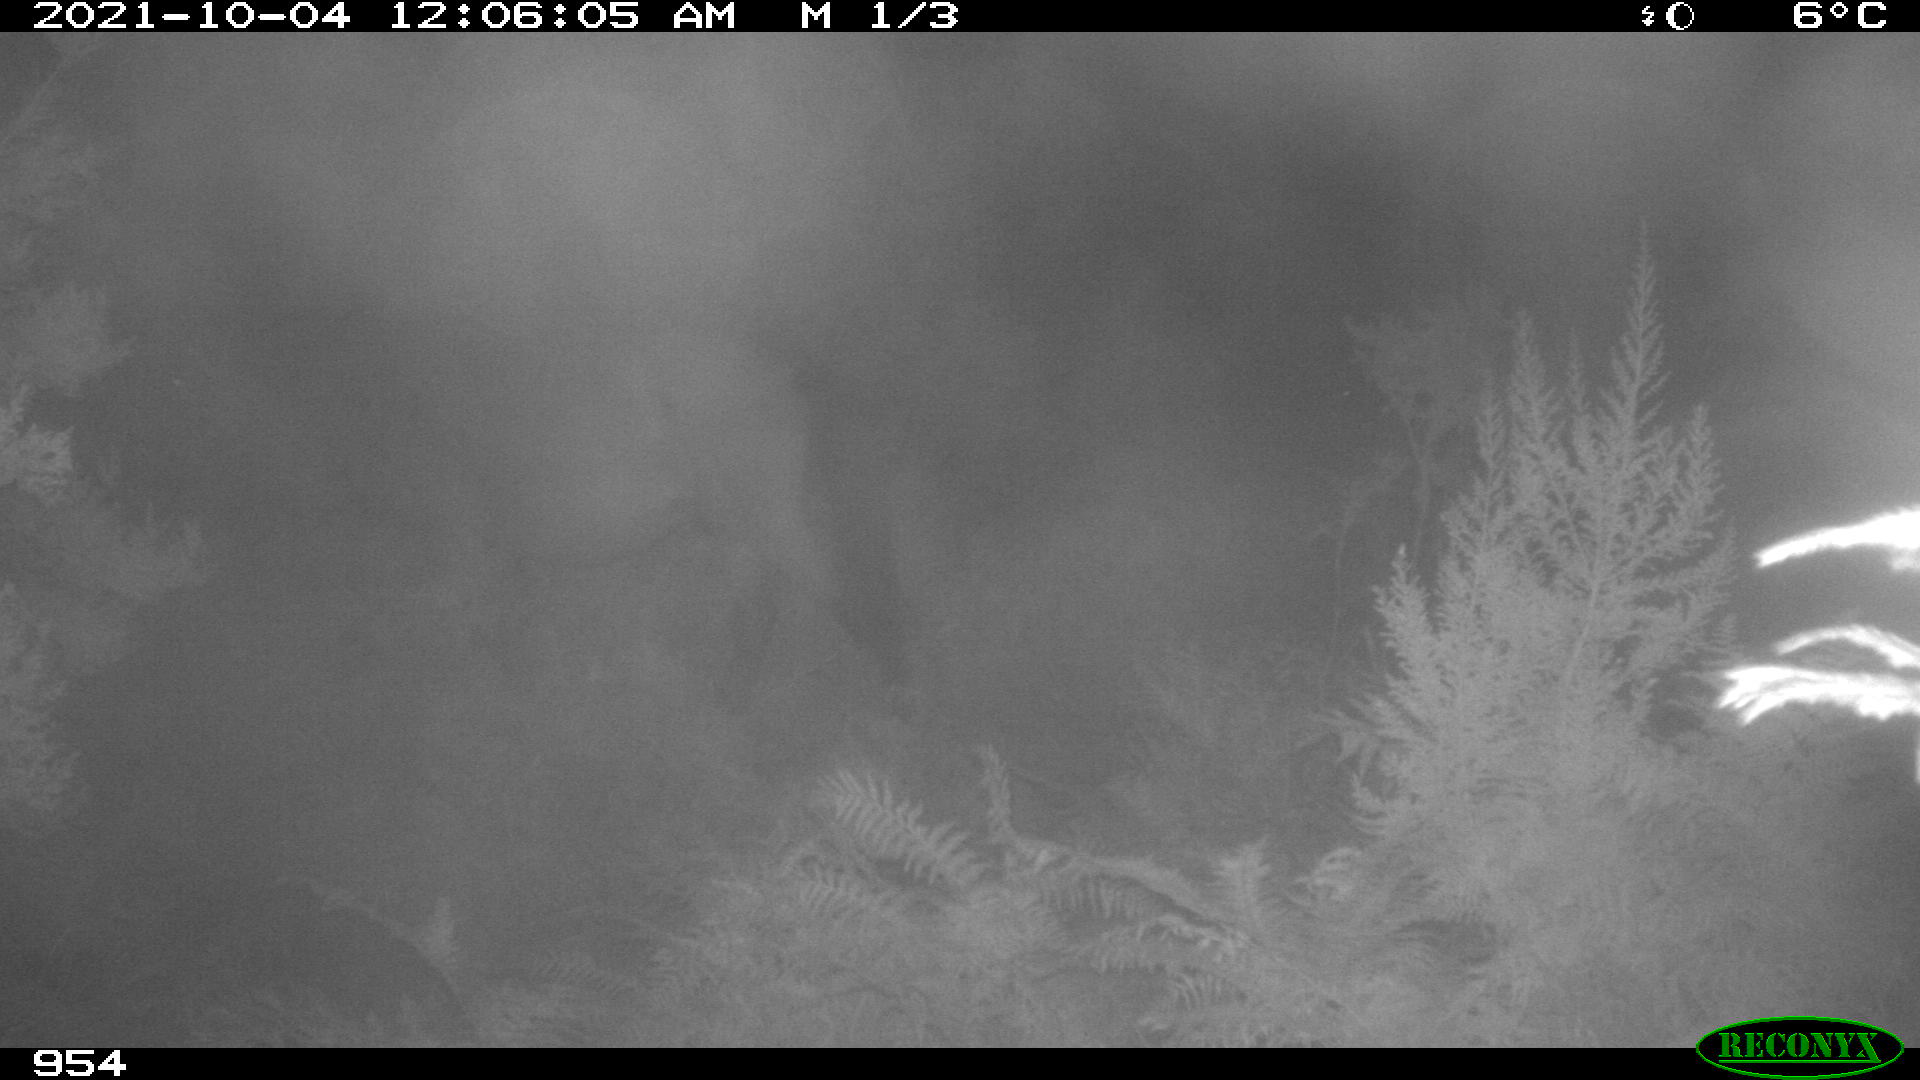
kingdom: Animalia
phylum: Chordata
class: Mammalia
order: Perissodactyla
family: Equidae
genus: Equus
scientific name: Equus caballus
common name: Horse
